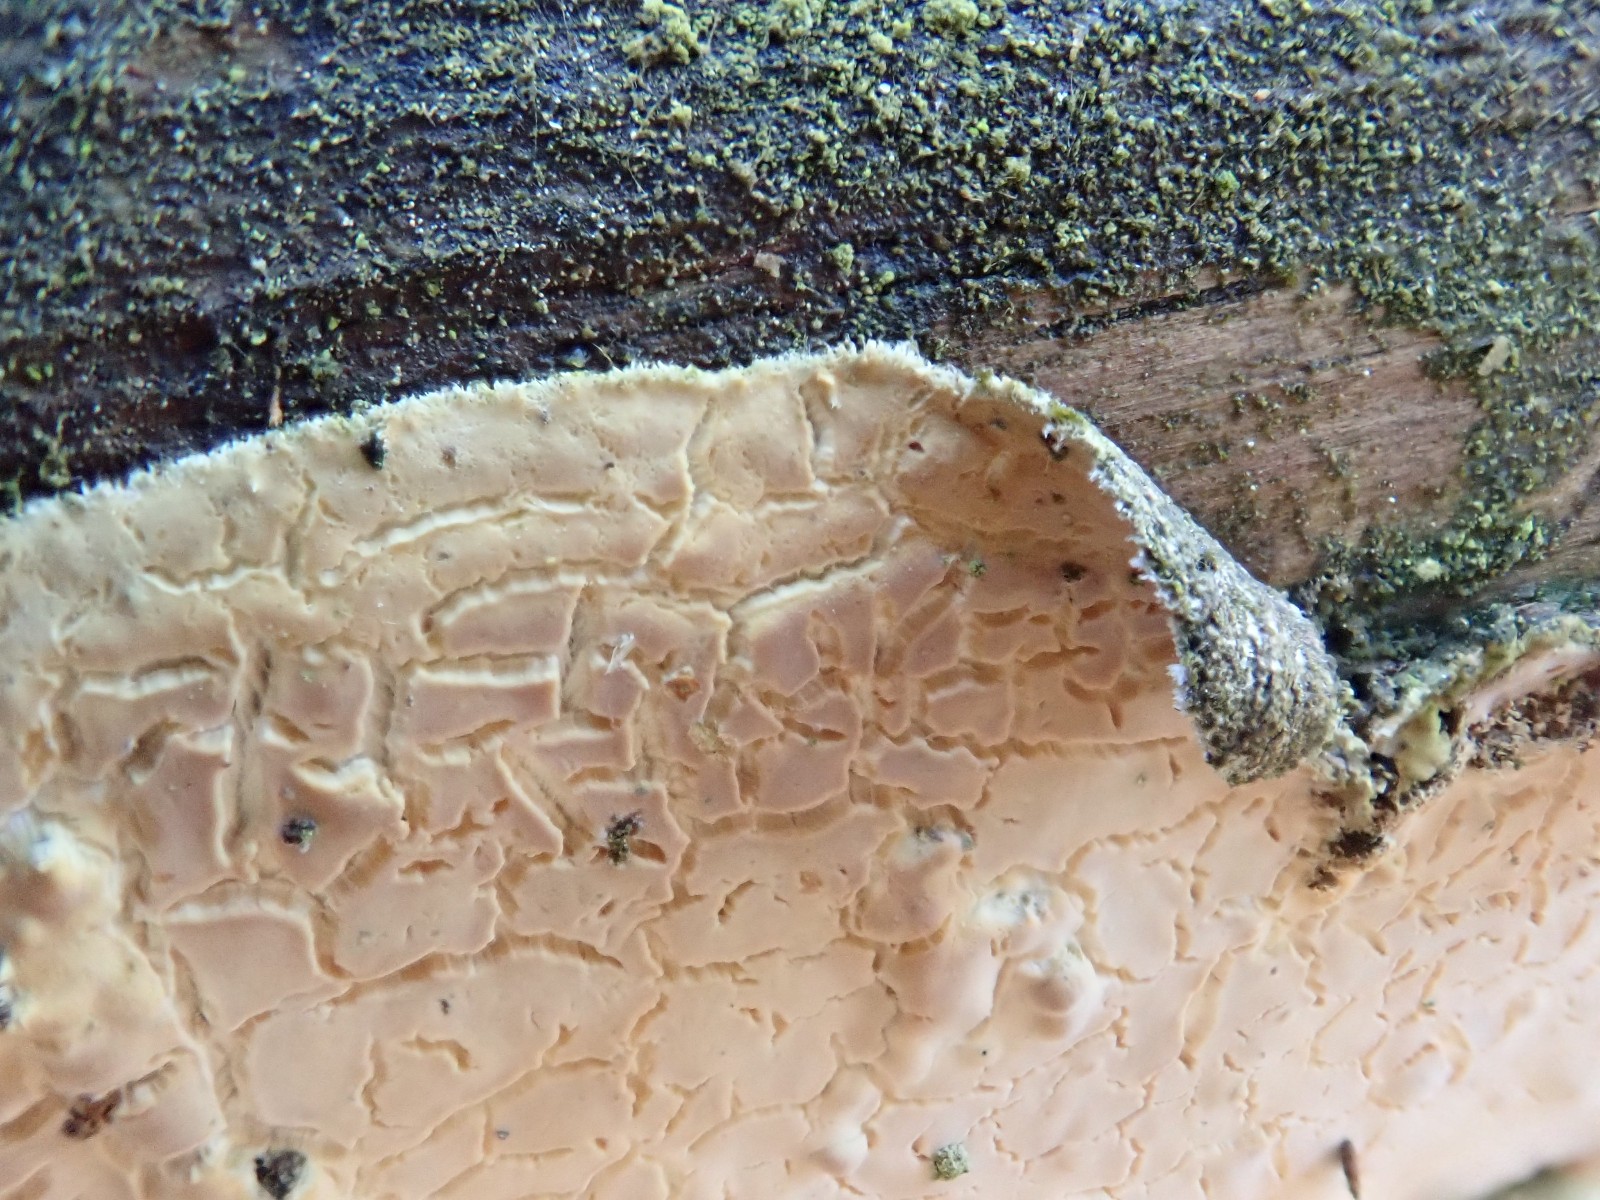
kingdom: Fungi
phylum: Basidiomycota
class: Agaricomycetes
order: Agaricales
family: Physalacriaceae
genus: Cylindrobasidium
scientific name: Cylindrobasidium evolvens
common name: sprækkehinde
